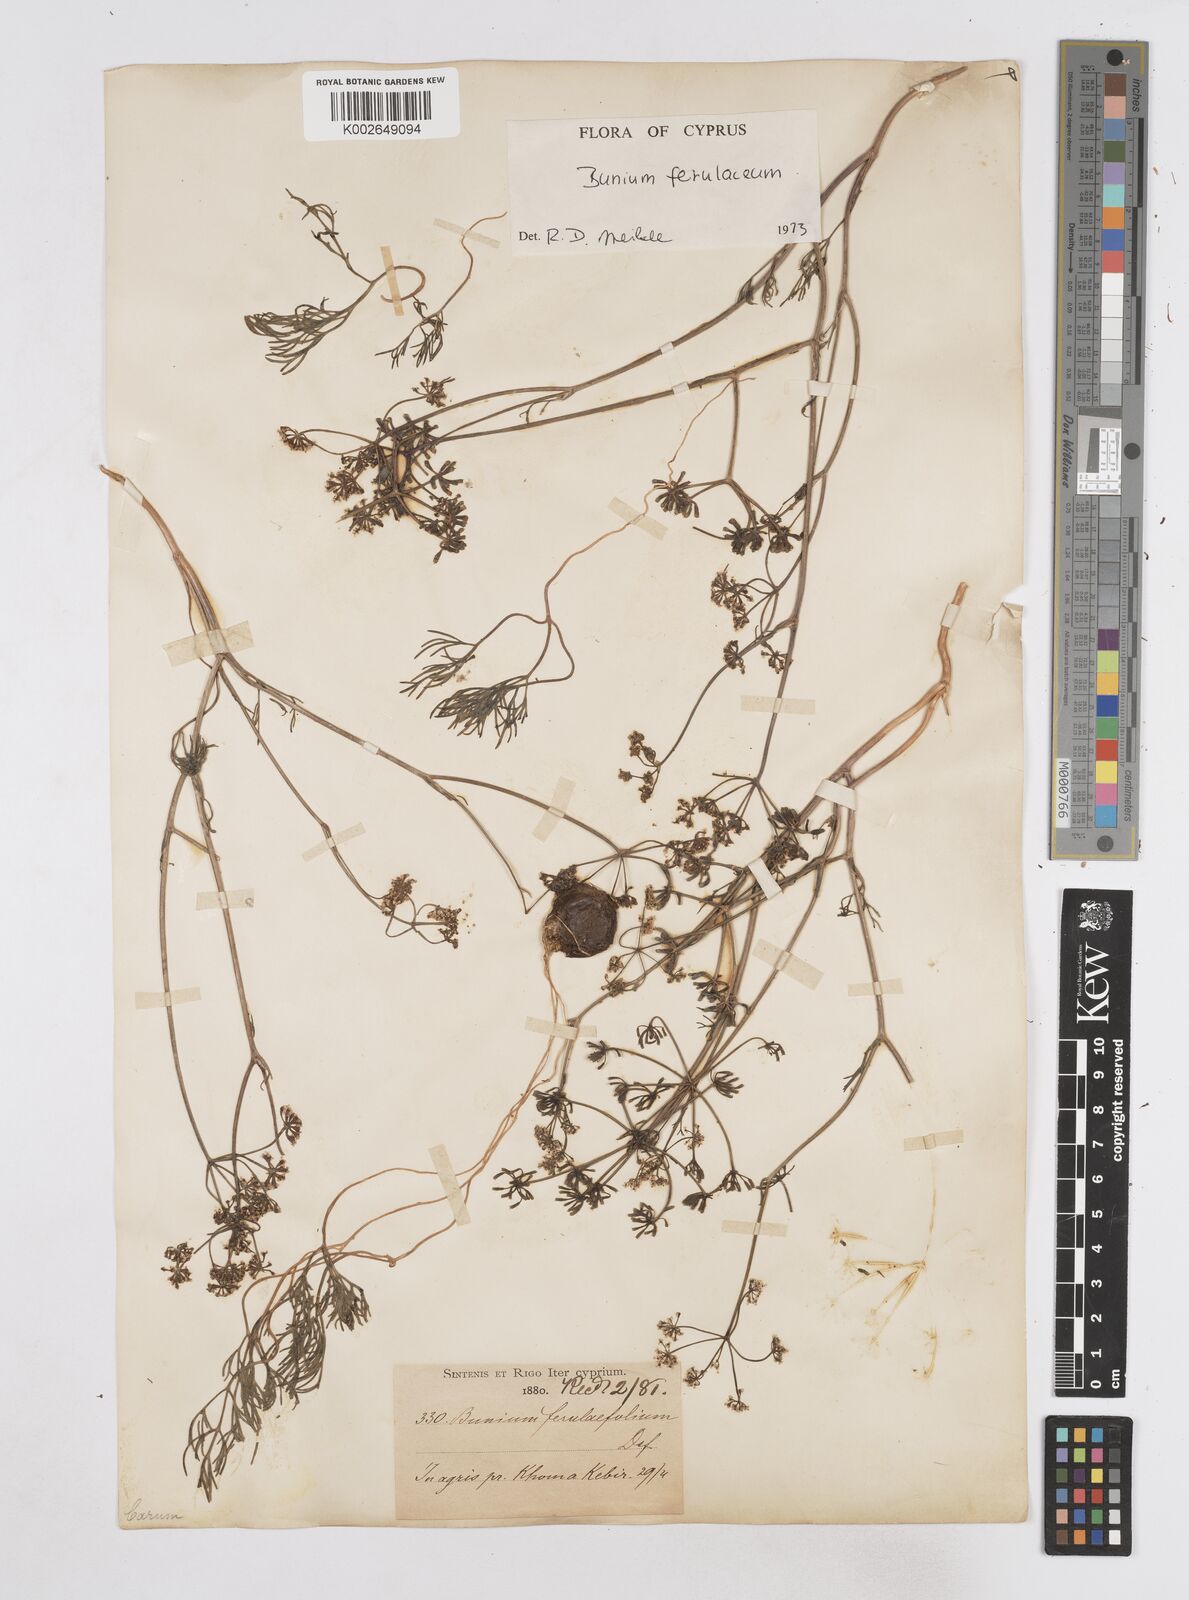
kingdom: Plantae
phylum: Tracheophyta
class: Magnoliopsida
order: Apiales
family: Apiaceae
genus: Bunium
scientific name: Bunium ferulaceum
